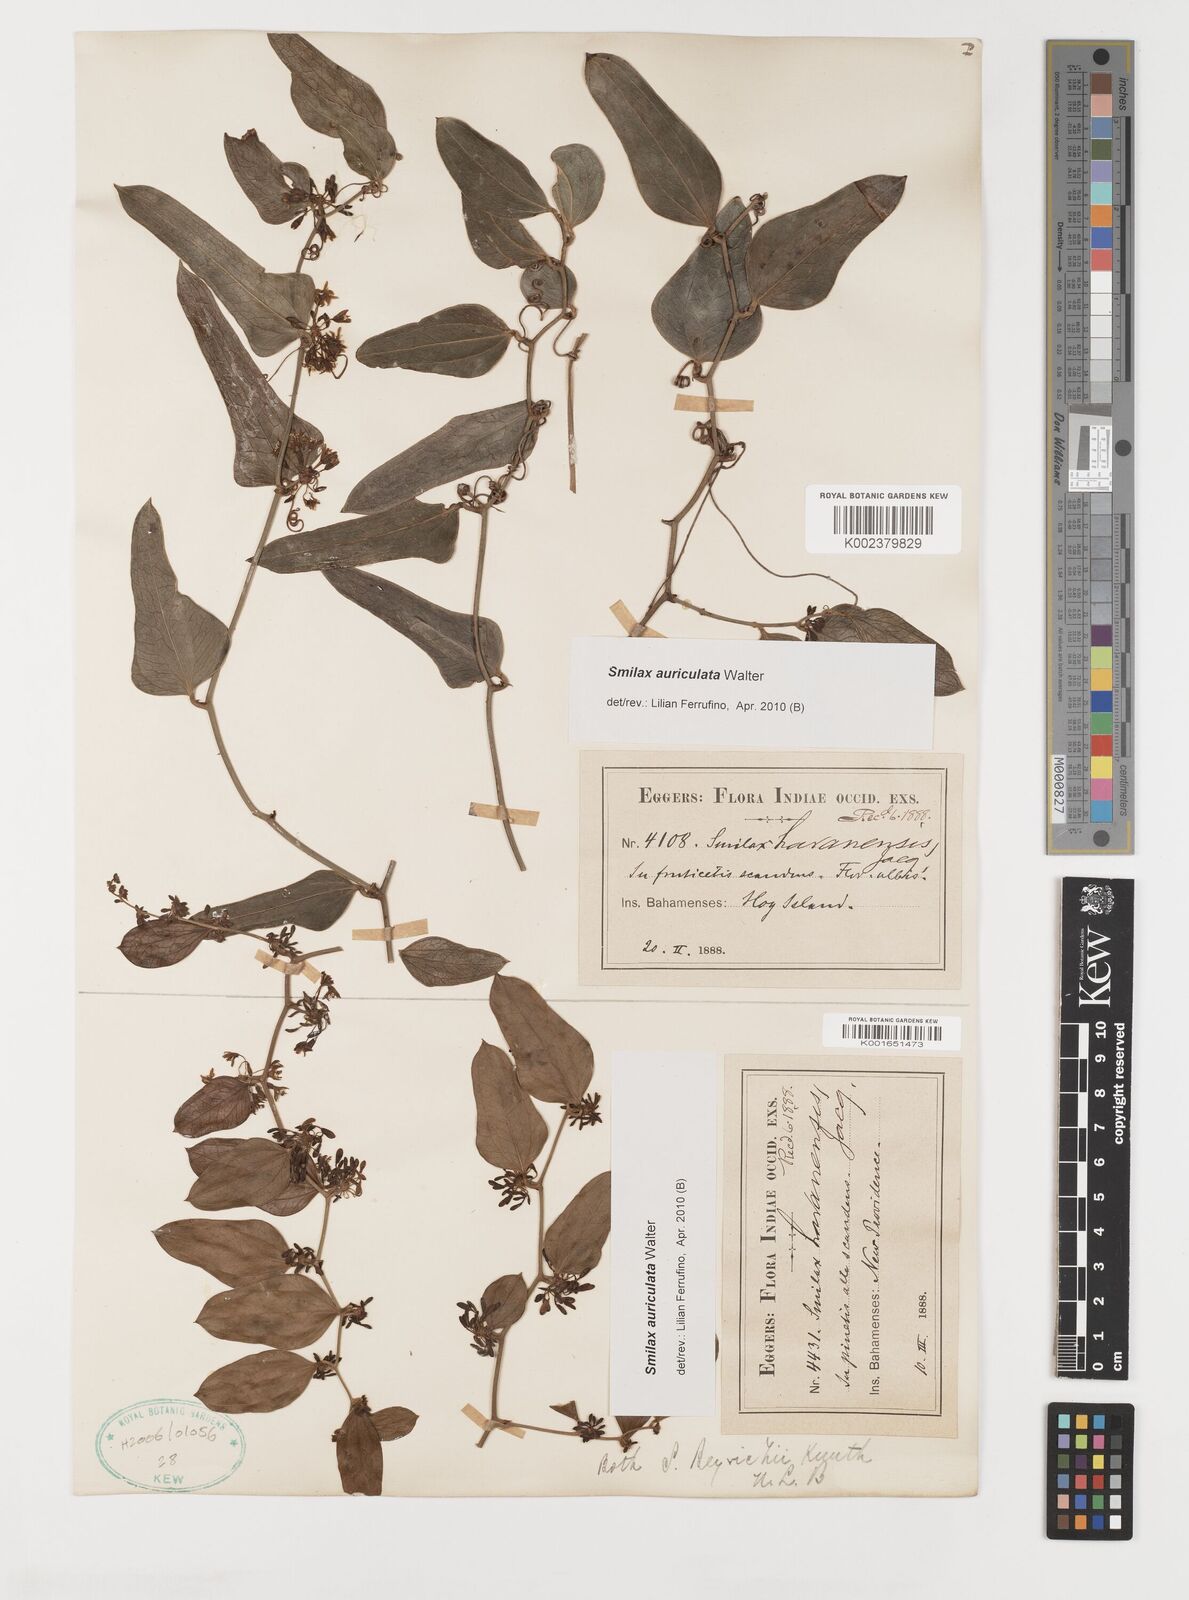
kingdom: Plantae
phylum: Tracheophyta
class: Liliopsida
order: Liliales
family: Smilacaceae
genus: Smilax
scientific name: Smilax auriculata
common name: Wild bamboo
